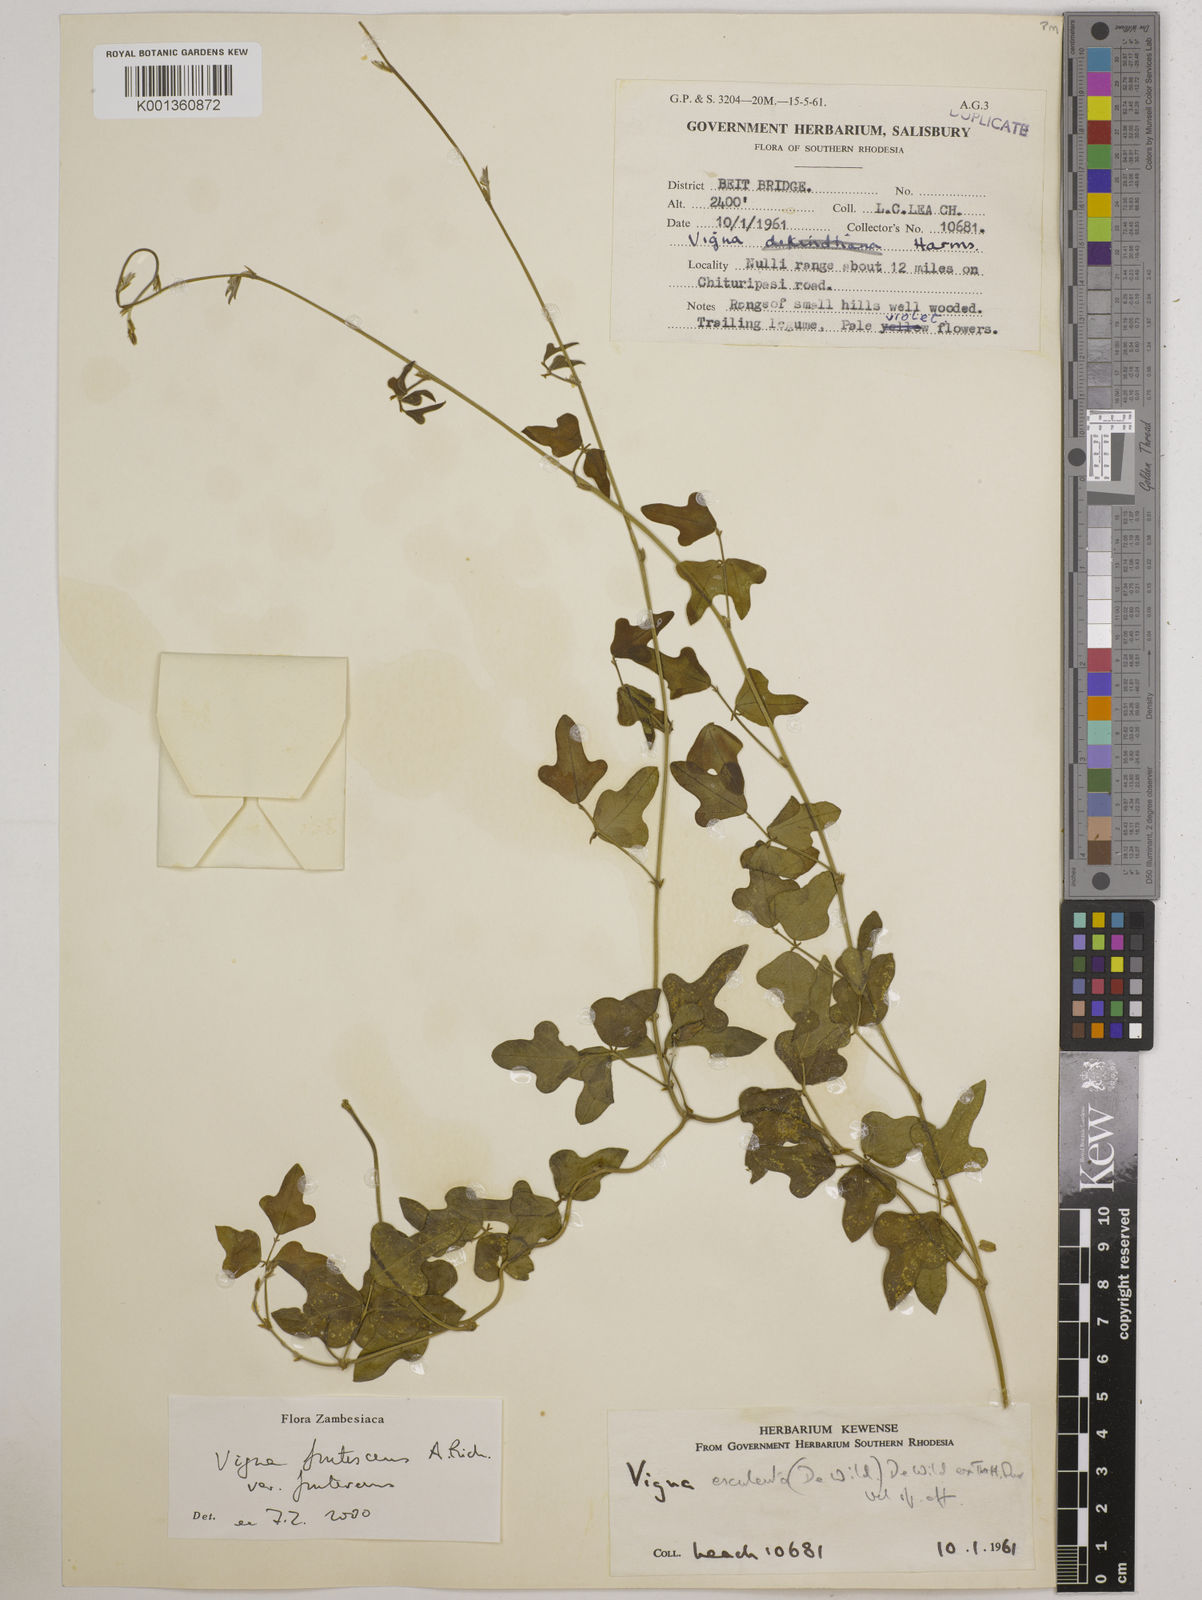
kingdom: Plantae
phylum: Tracheophyta
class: Magnoliopsida
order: Fabales
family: Fabaceae
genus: Vigna
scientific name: Vigna
